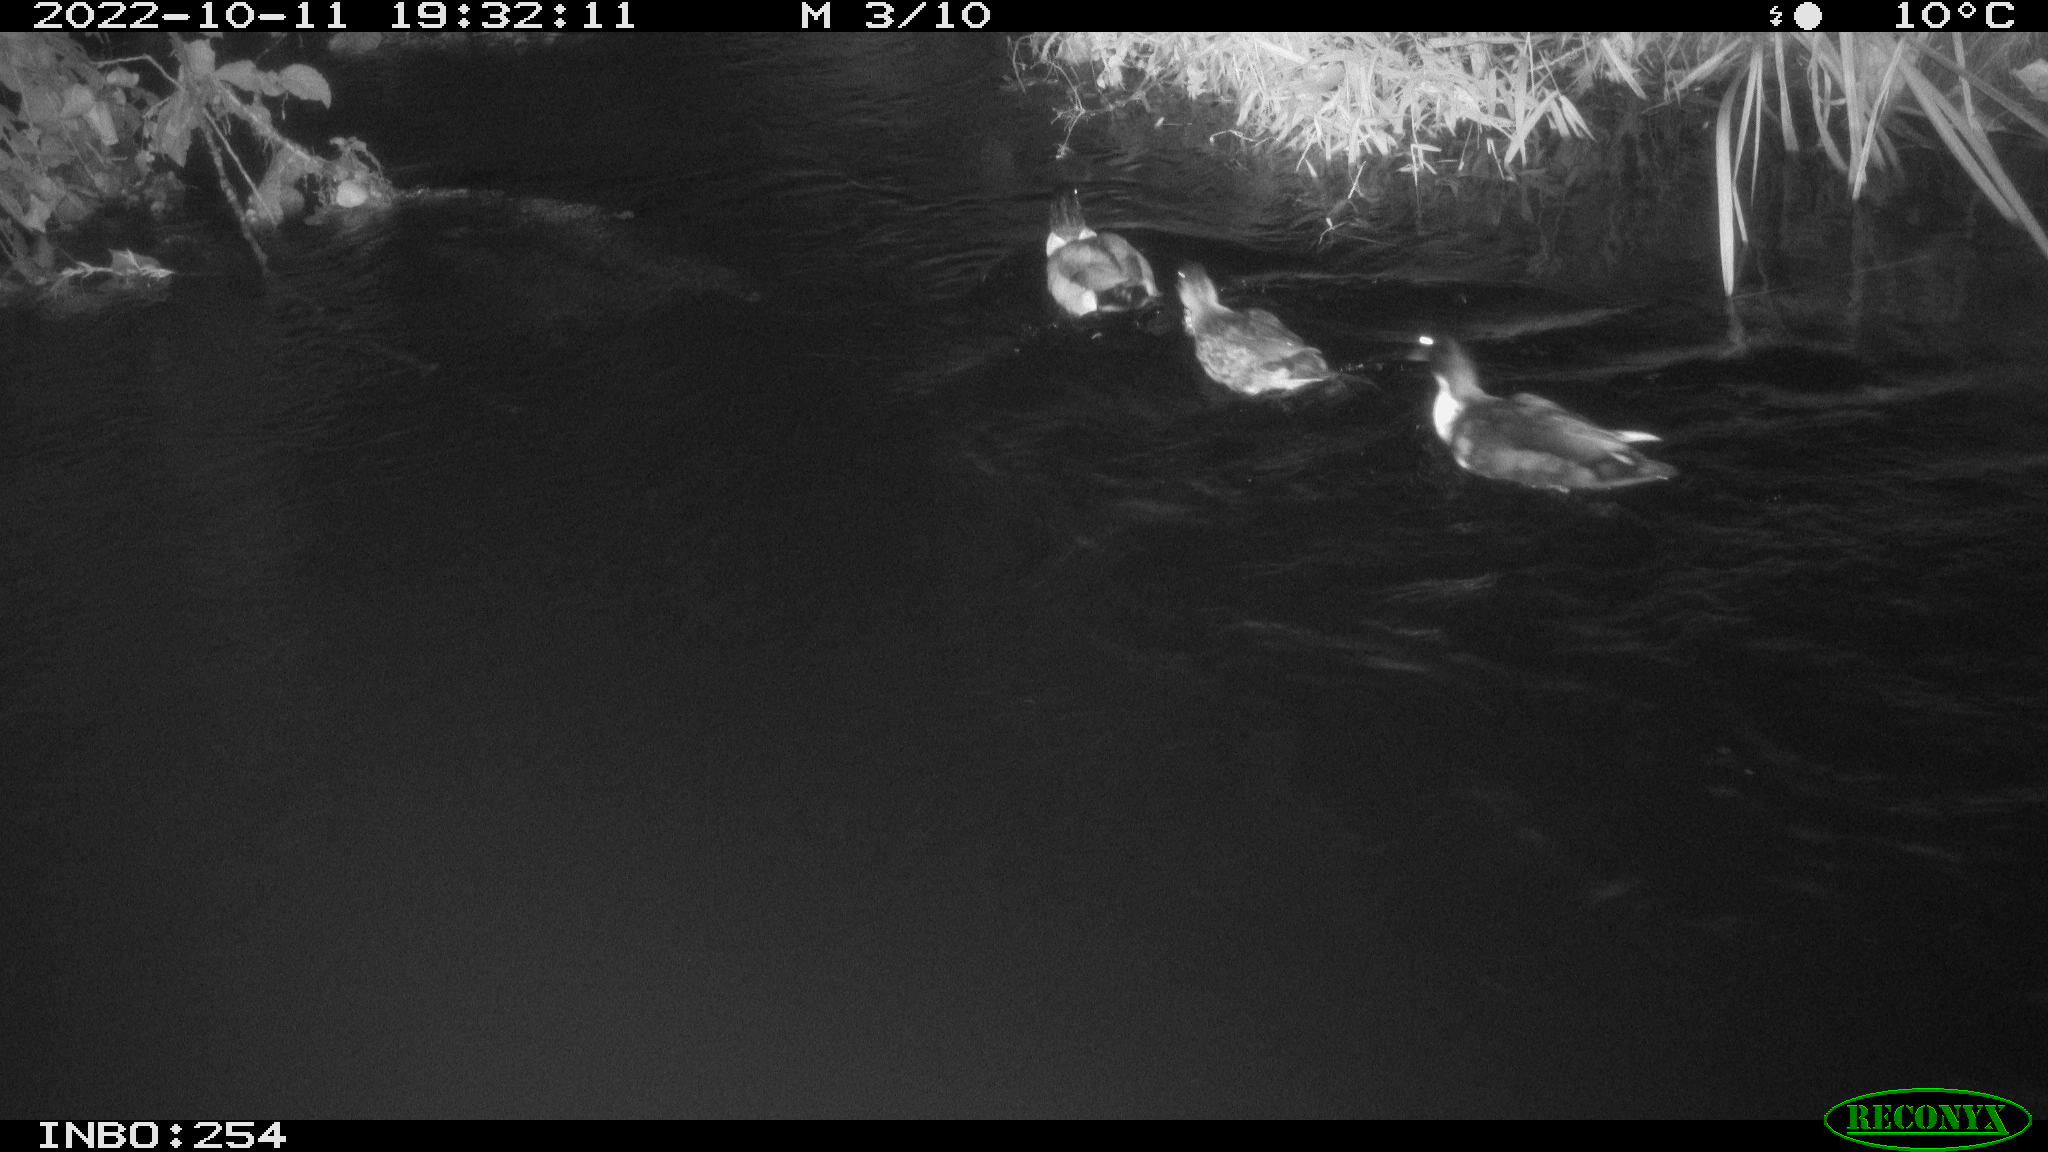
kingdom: Animalia
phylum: Chordata
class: Aves
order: Anseriformes
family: Anatidae
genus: Anas
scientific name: Anas
